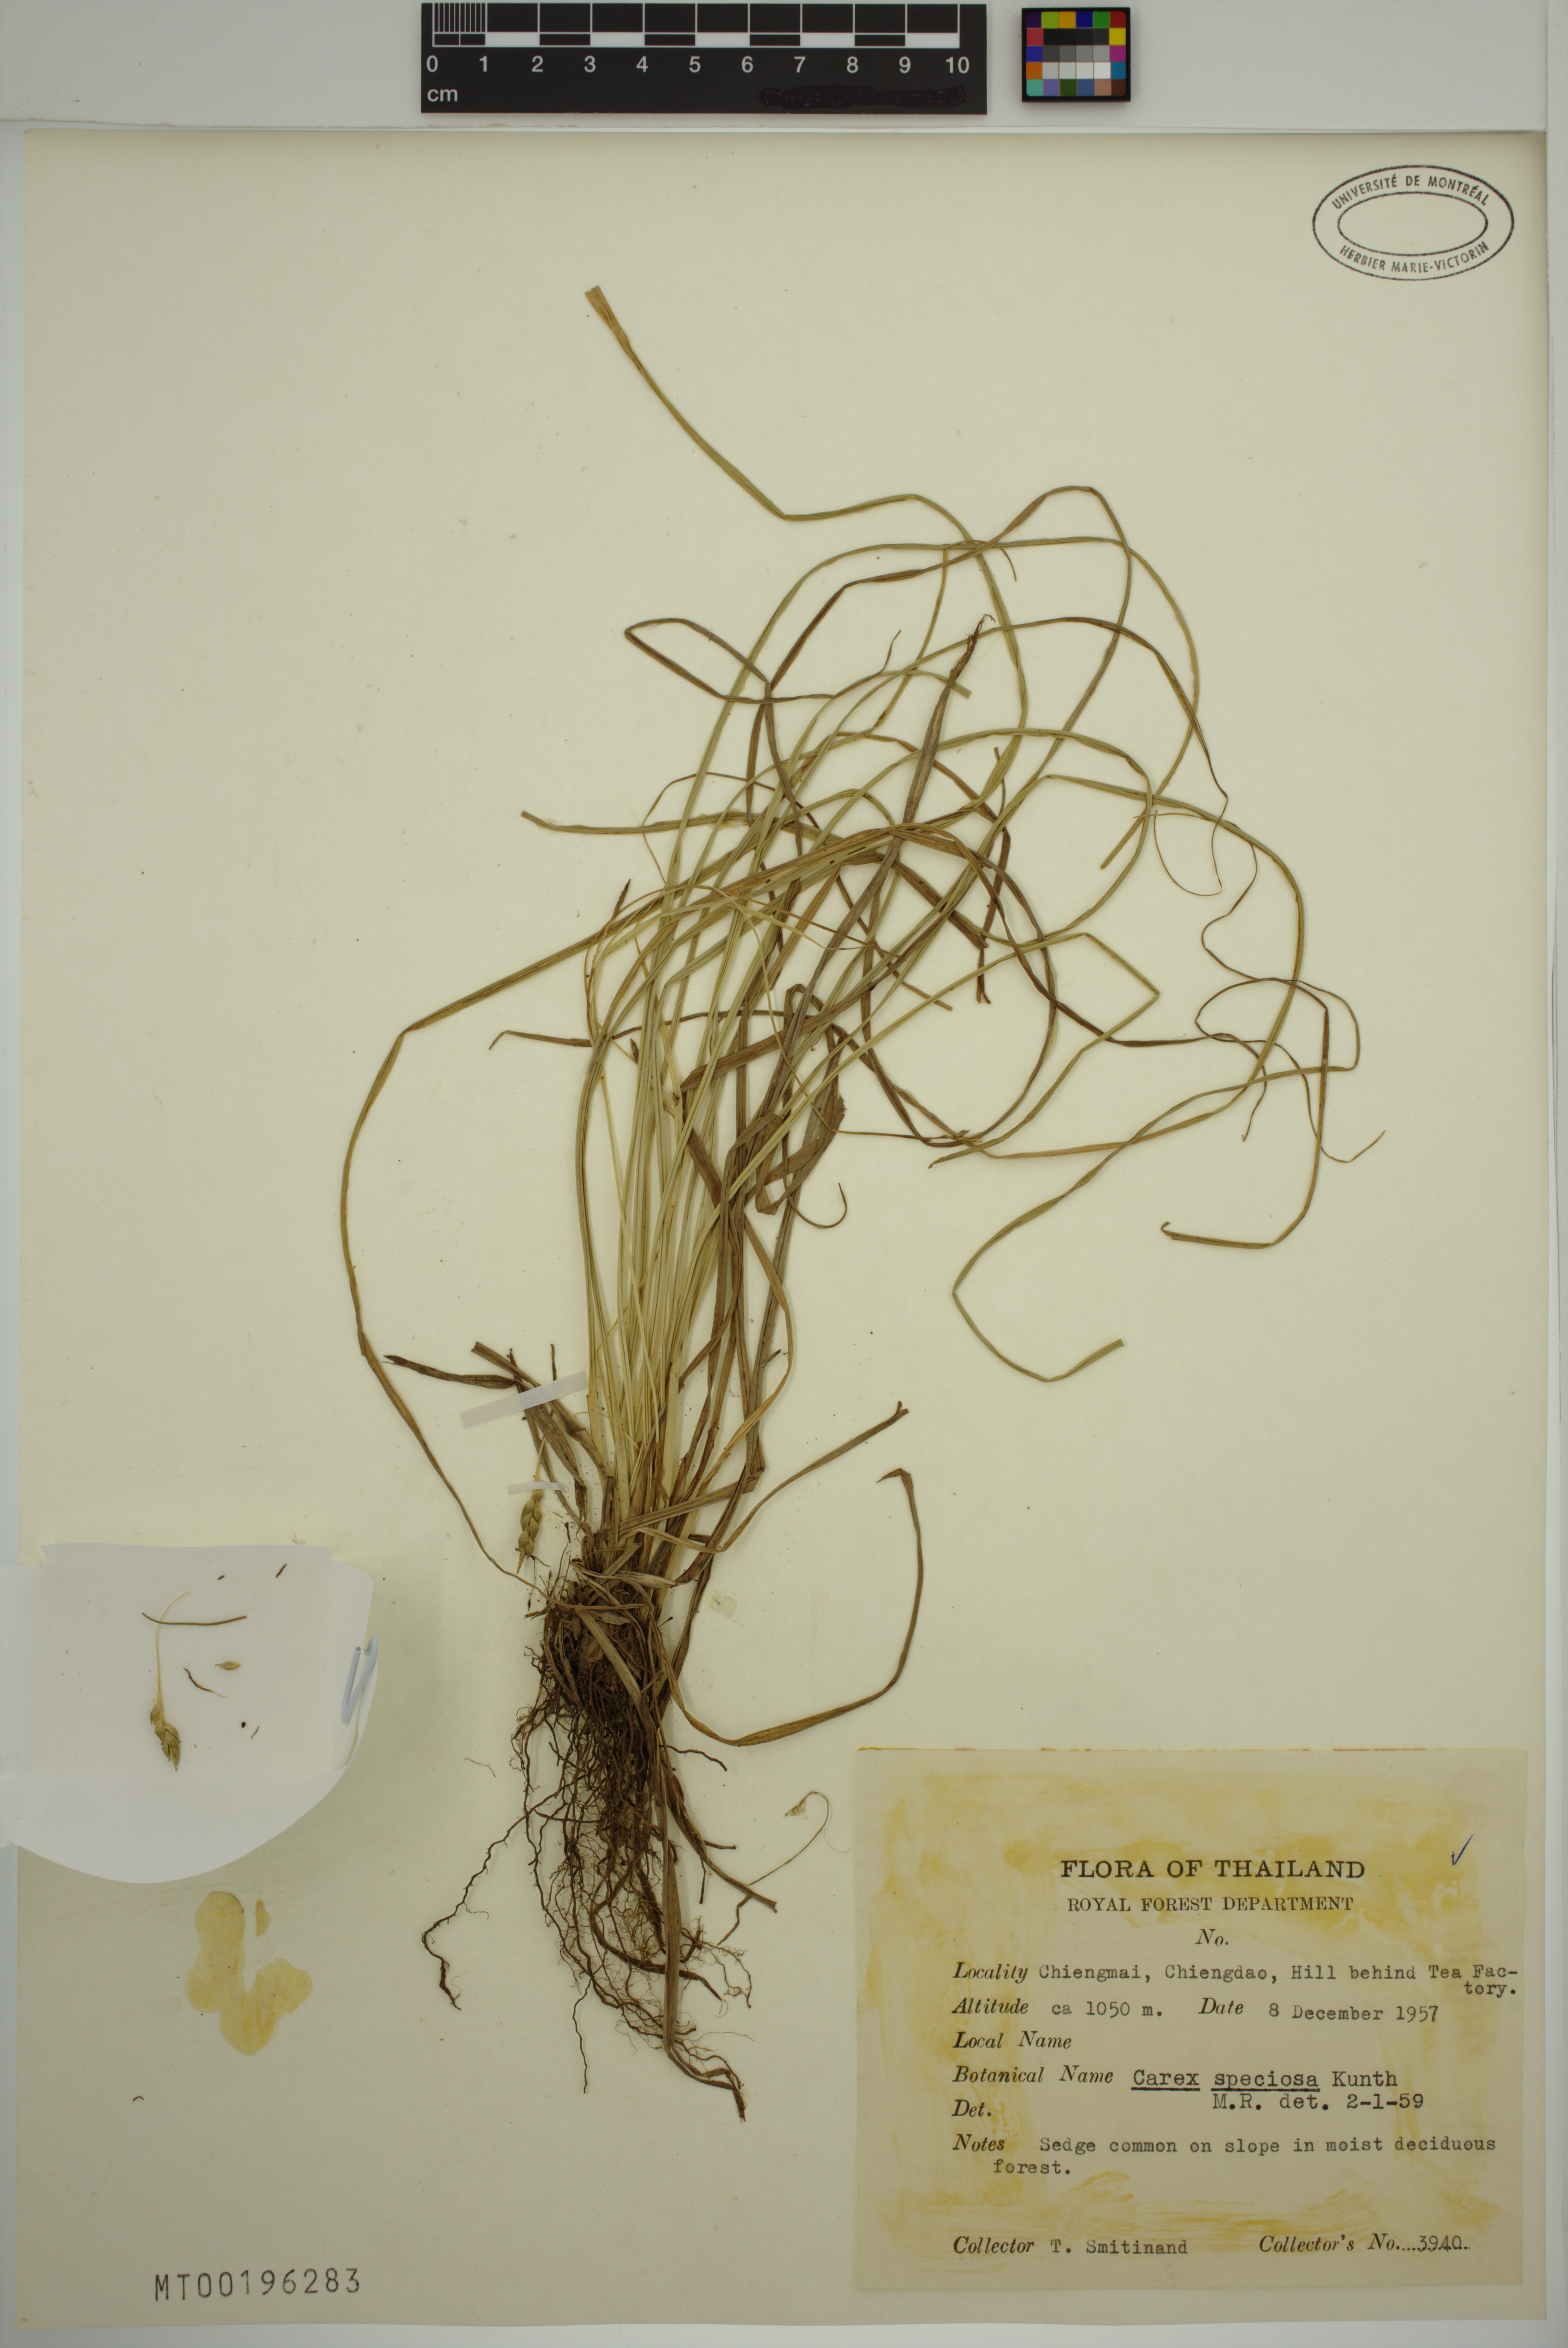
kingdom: Plantae
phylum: Tracheophyta
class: Liliopsida
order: Poales
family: Cyperaceae
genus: Carex
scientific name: Carex speciosa
